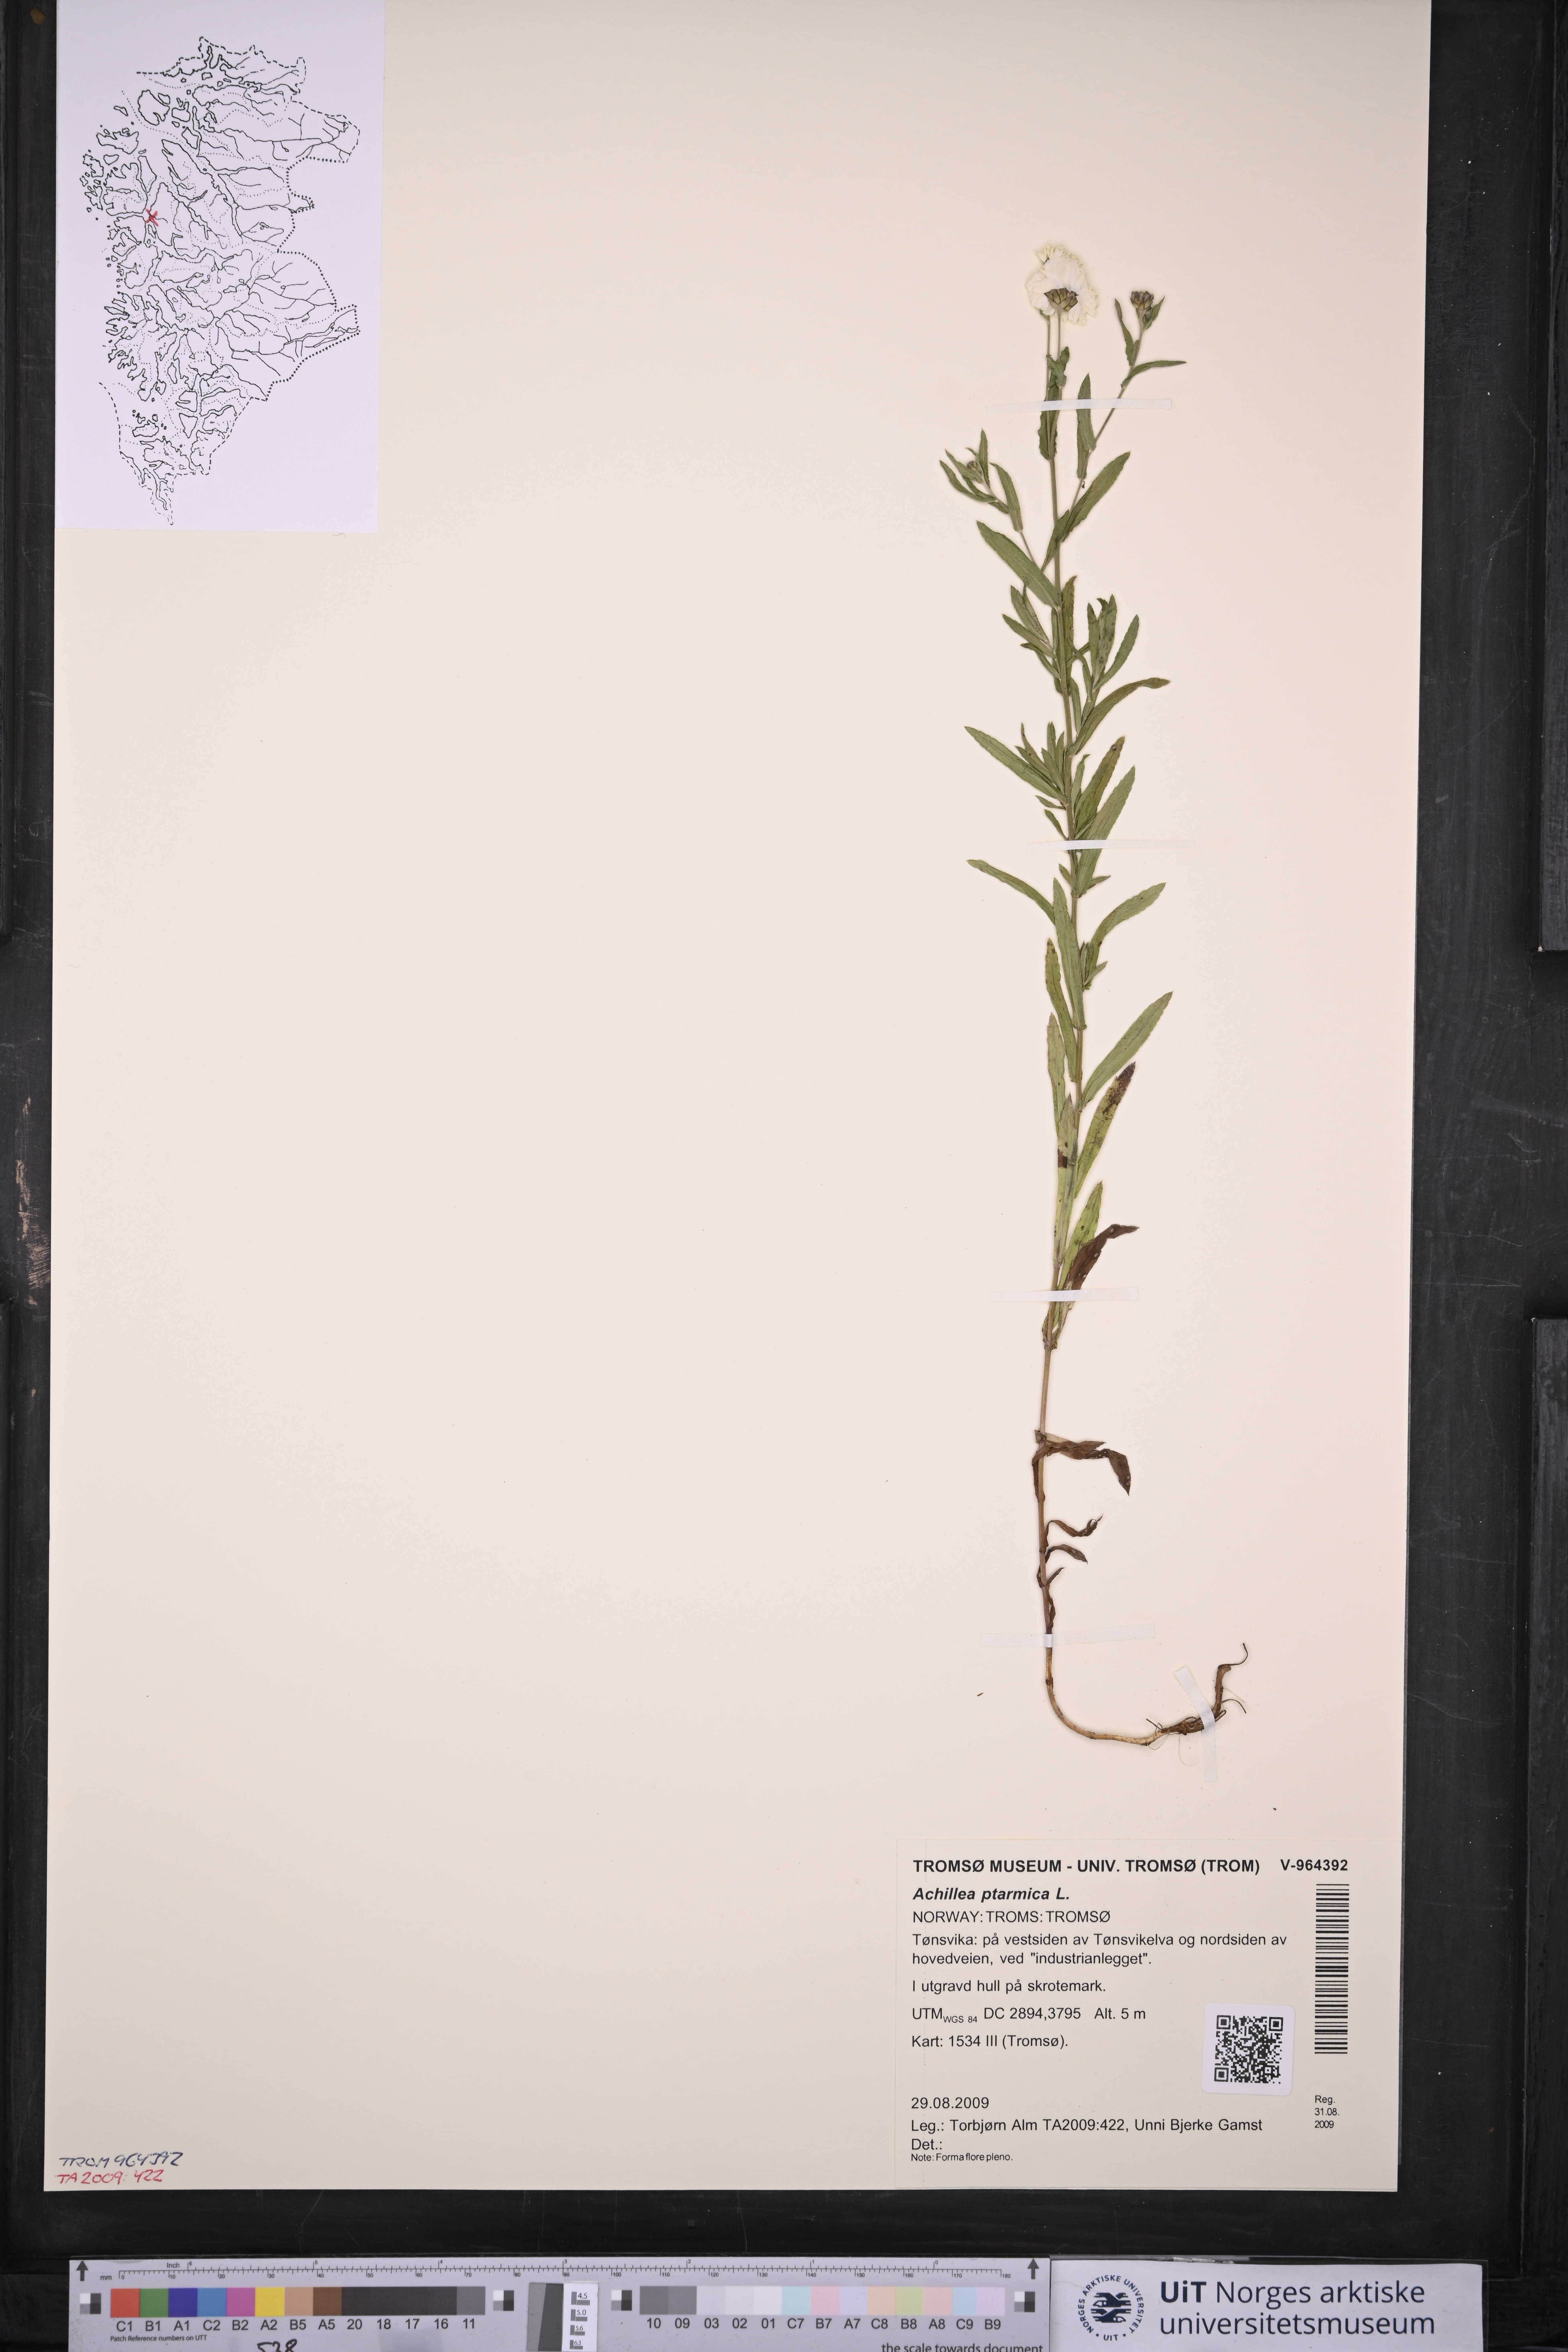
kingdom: Plantae
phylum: Tracheophyta
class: Magnoliopsida
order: Asterales
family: Asteraceae
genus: Achillea
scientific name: Achillea ptarmica
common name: Sneezeweed
